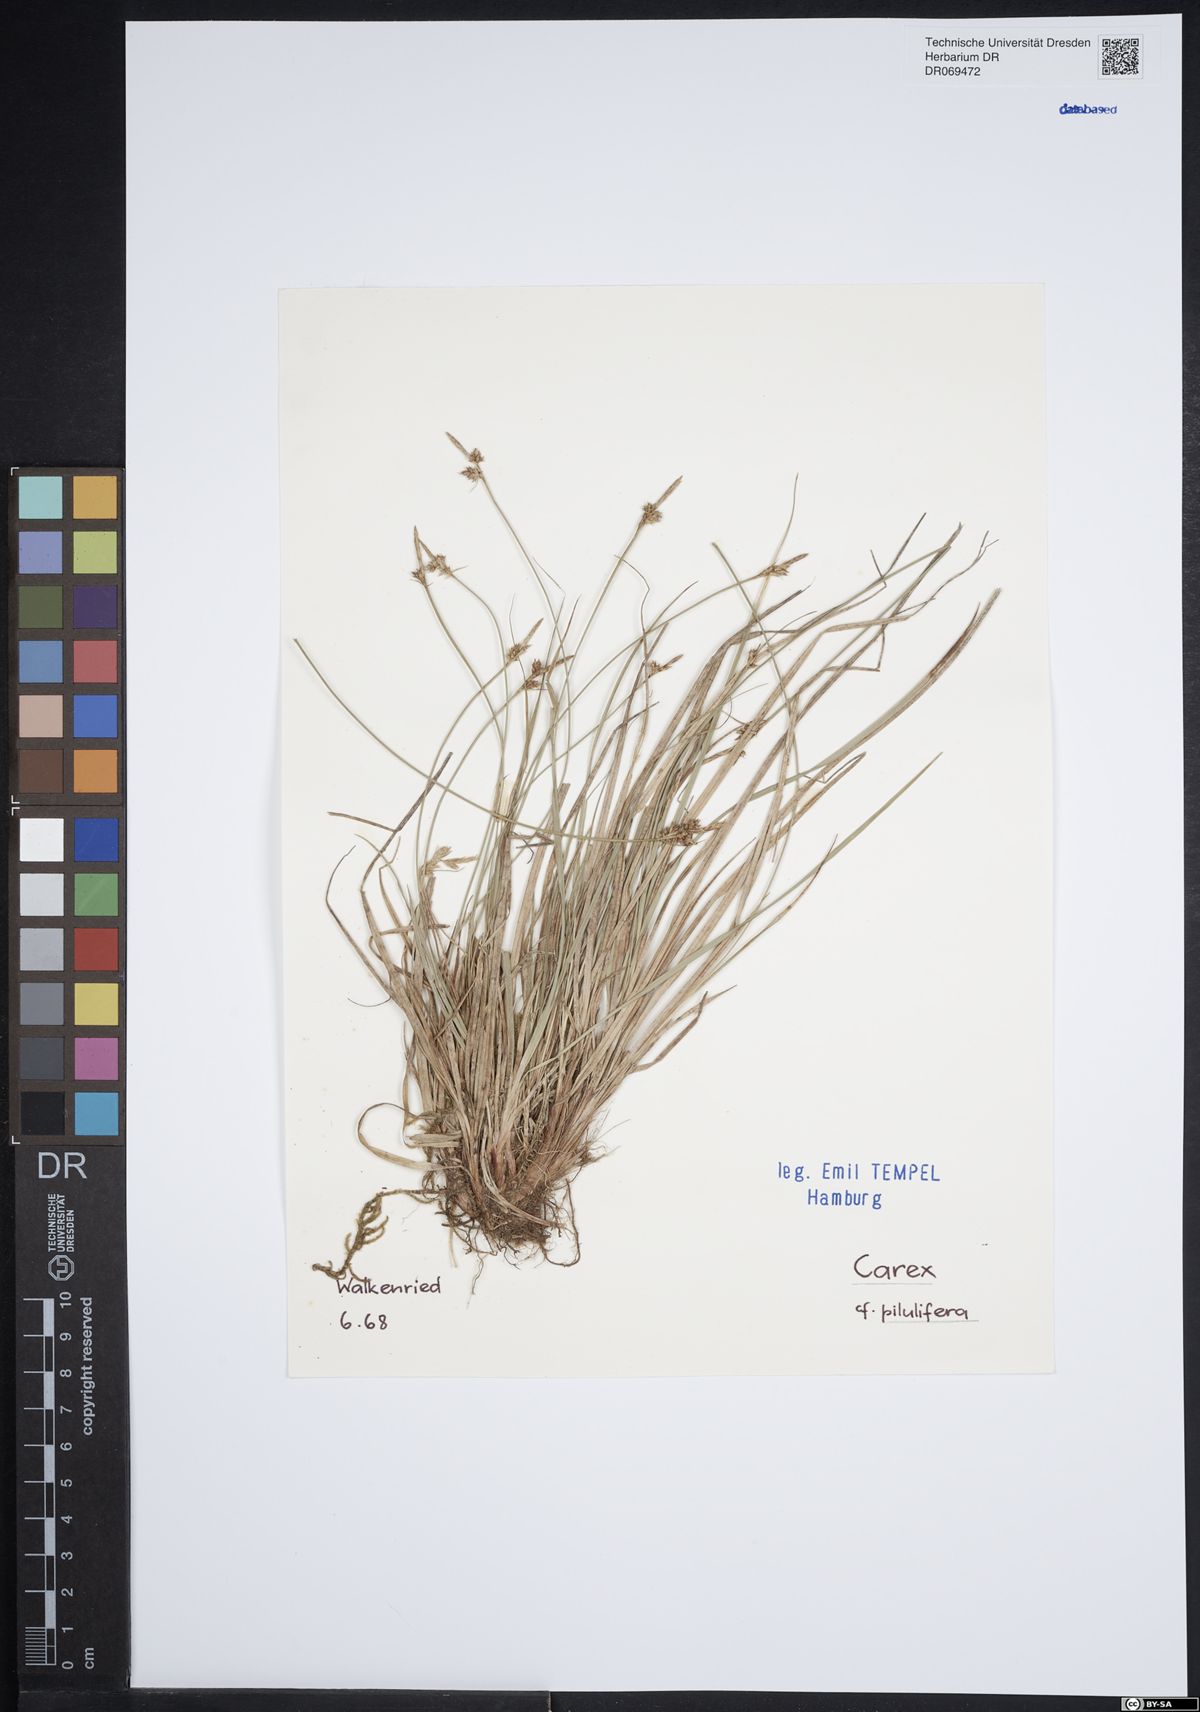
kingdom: Plantae
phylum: Tracheophyta
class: Liliopsida
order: Poales
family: Cyperaceae
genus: Carex
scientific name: Carex pilulifera
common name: Pill sedge
